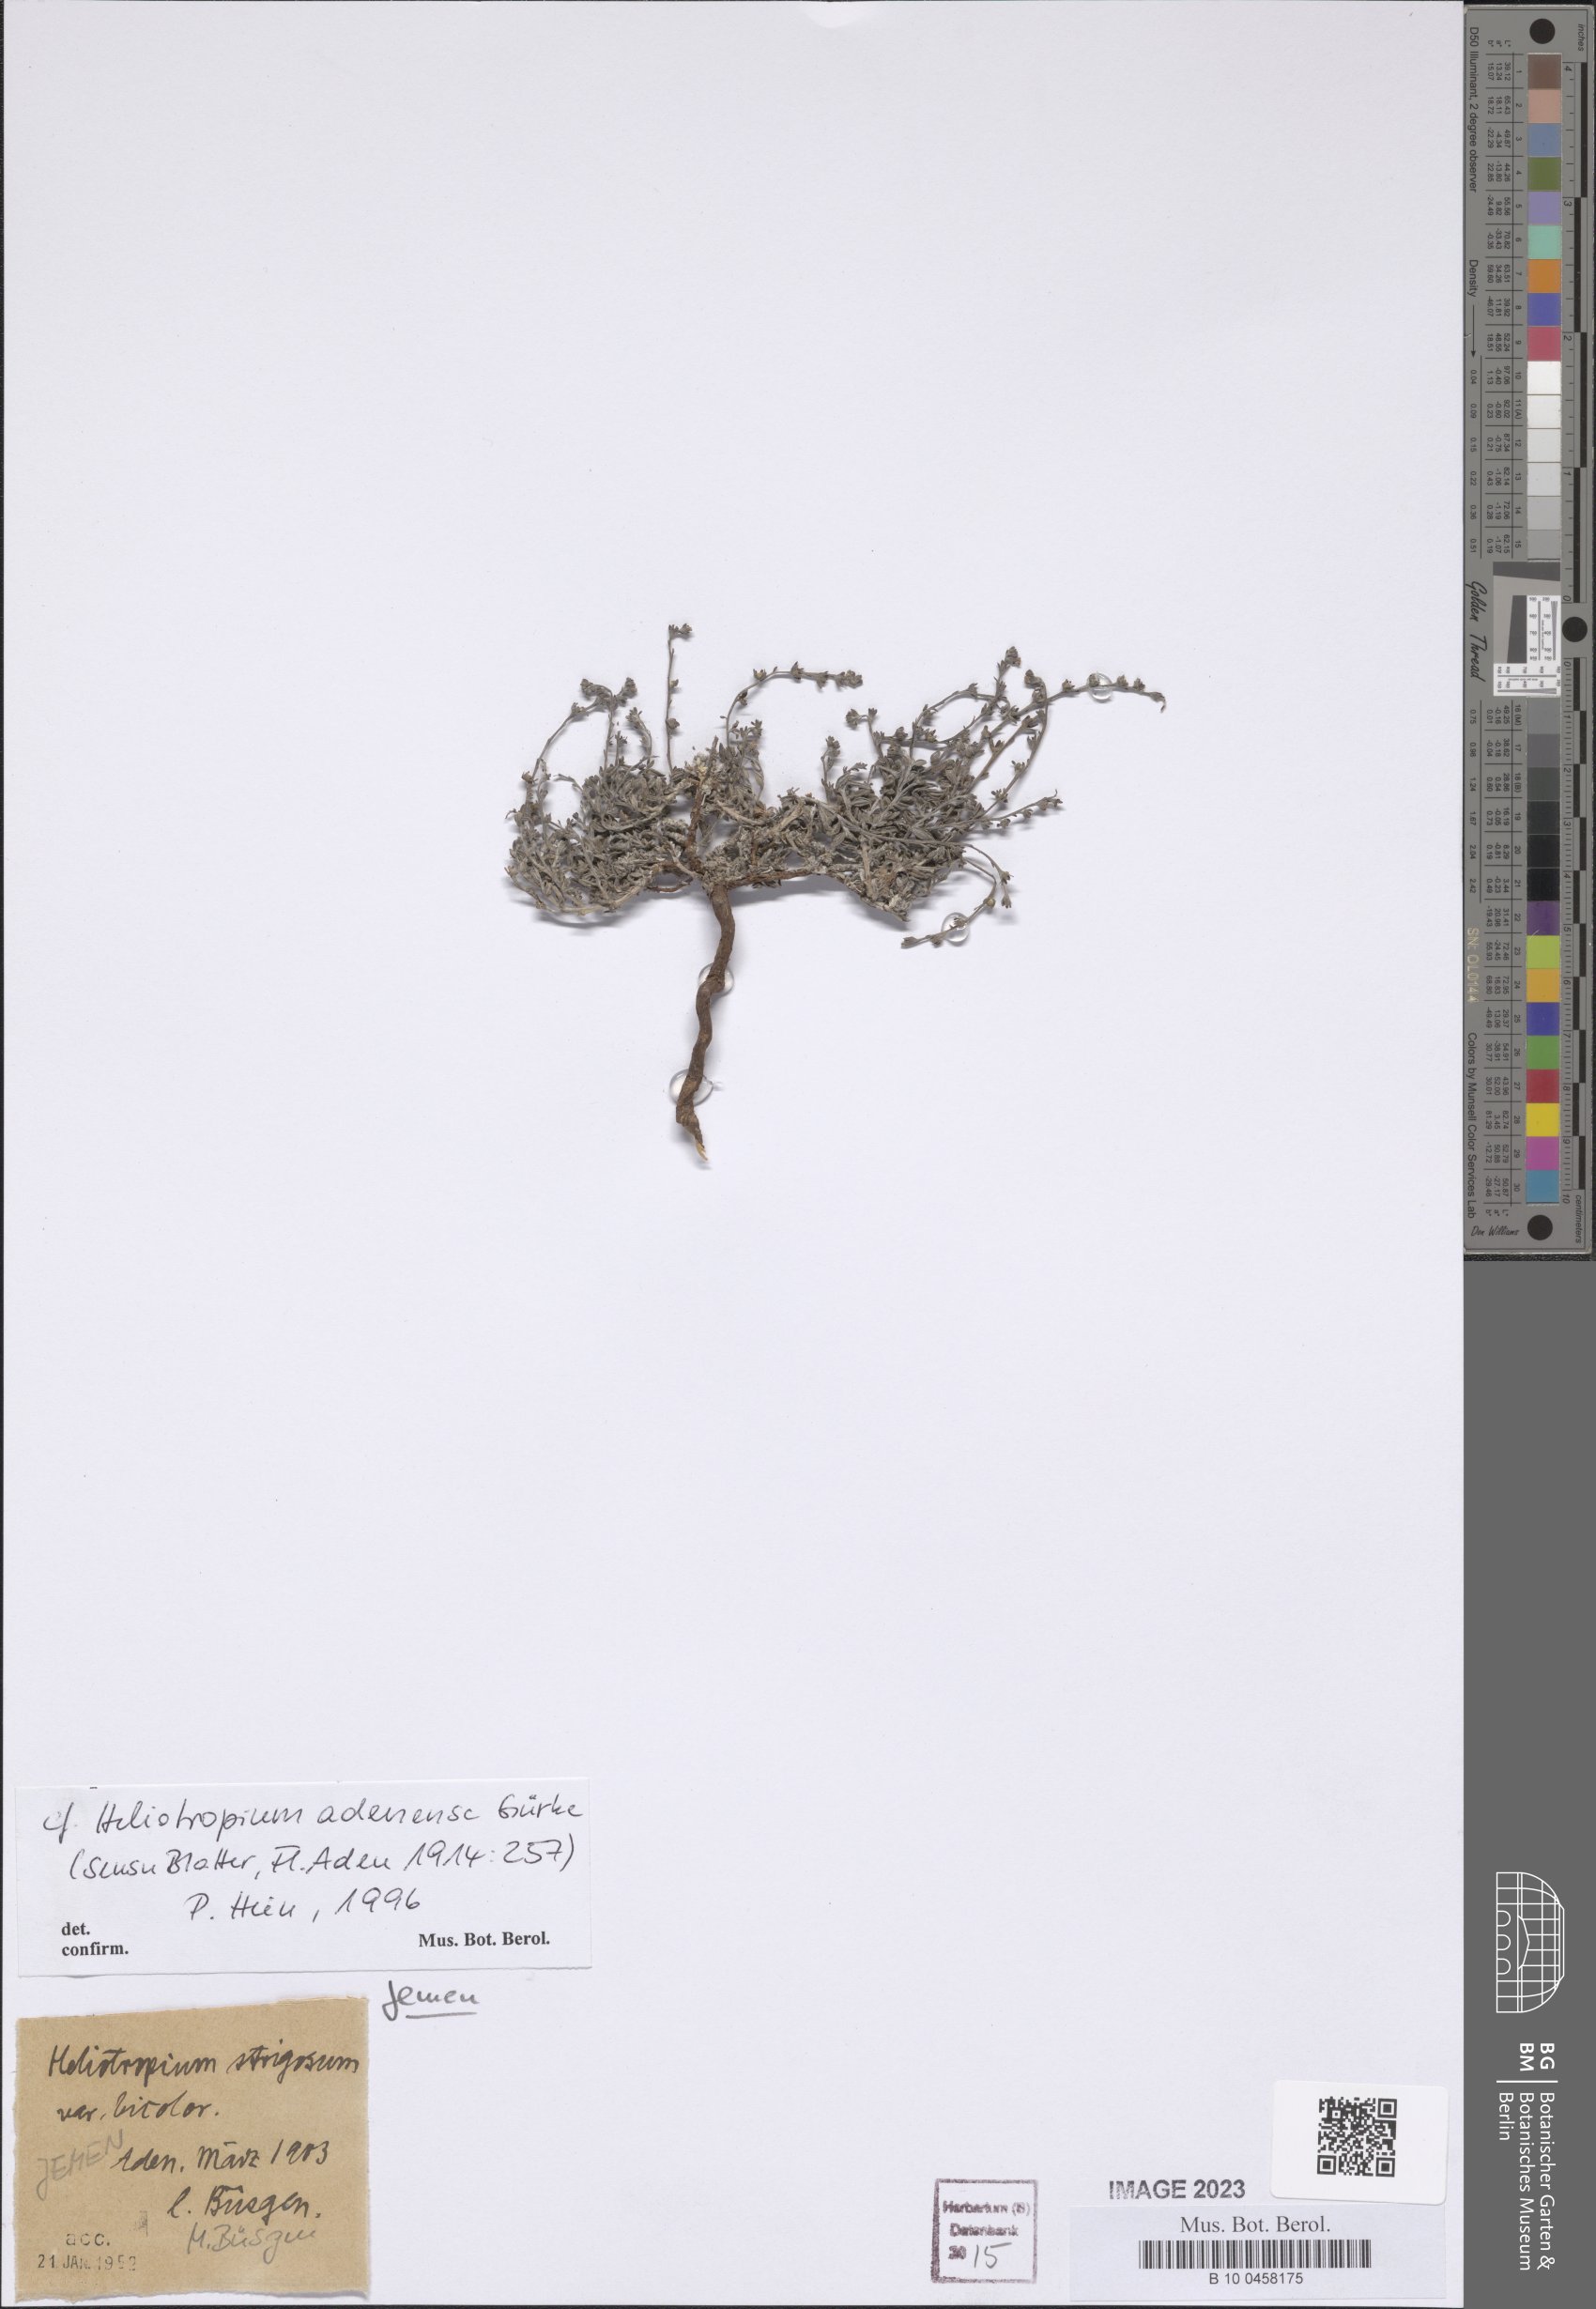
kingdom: Plantae
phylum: Tracheophyta
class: Magnoliopsida
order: Boraginales
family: Heliotropiaceae
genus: Heliotropium
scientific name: Heliotropium adenense
